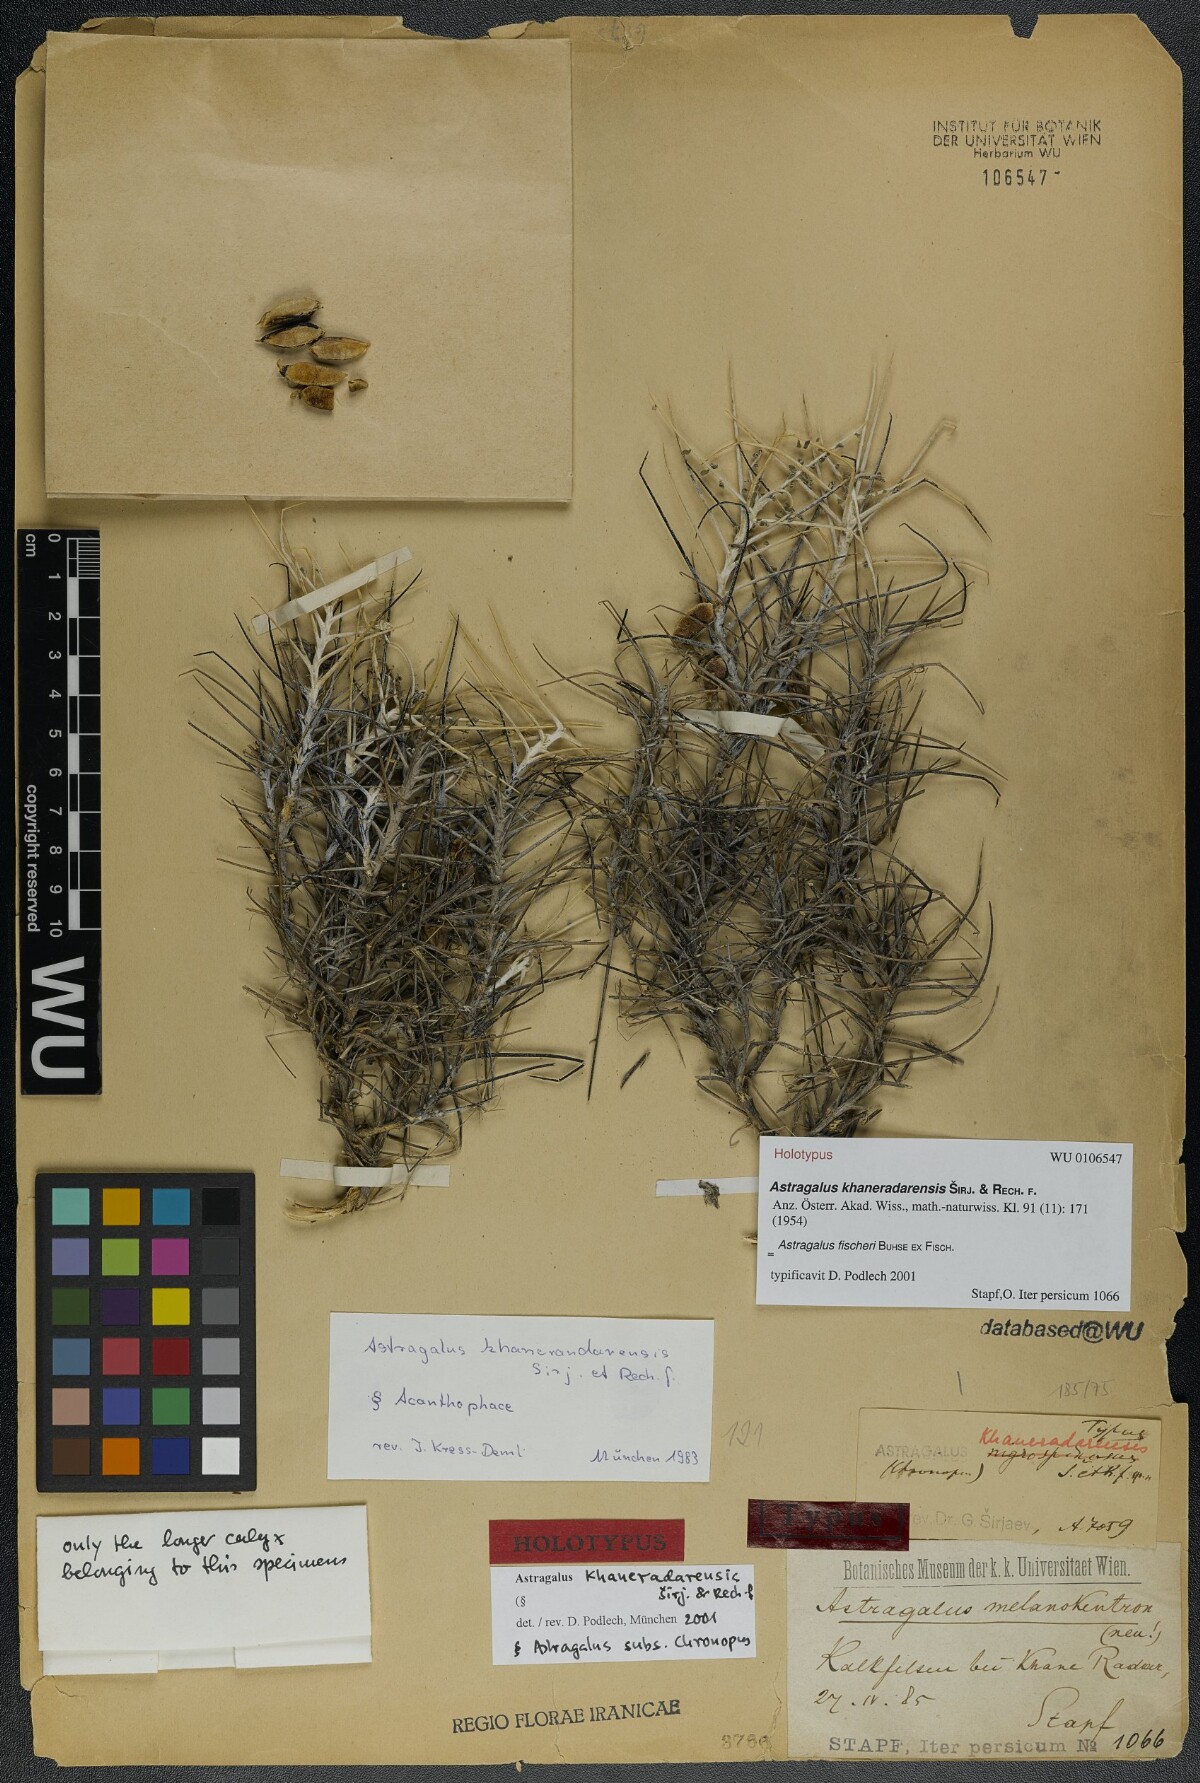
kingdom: Plantae
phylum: Tracheophyta
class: Magnoliopsida
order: Fabales
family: Fabaceae
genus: Astragalus
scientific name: Astragalus khaneradarensis
